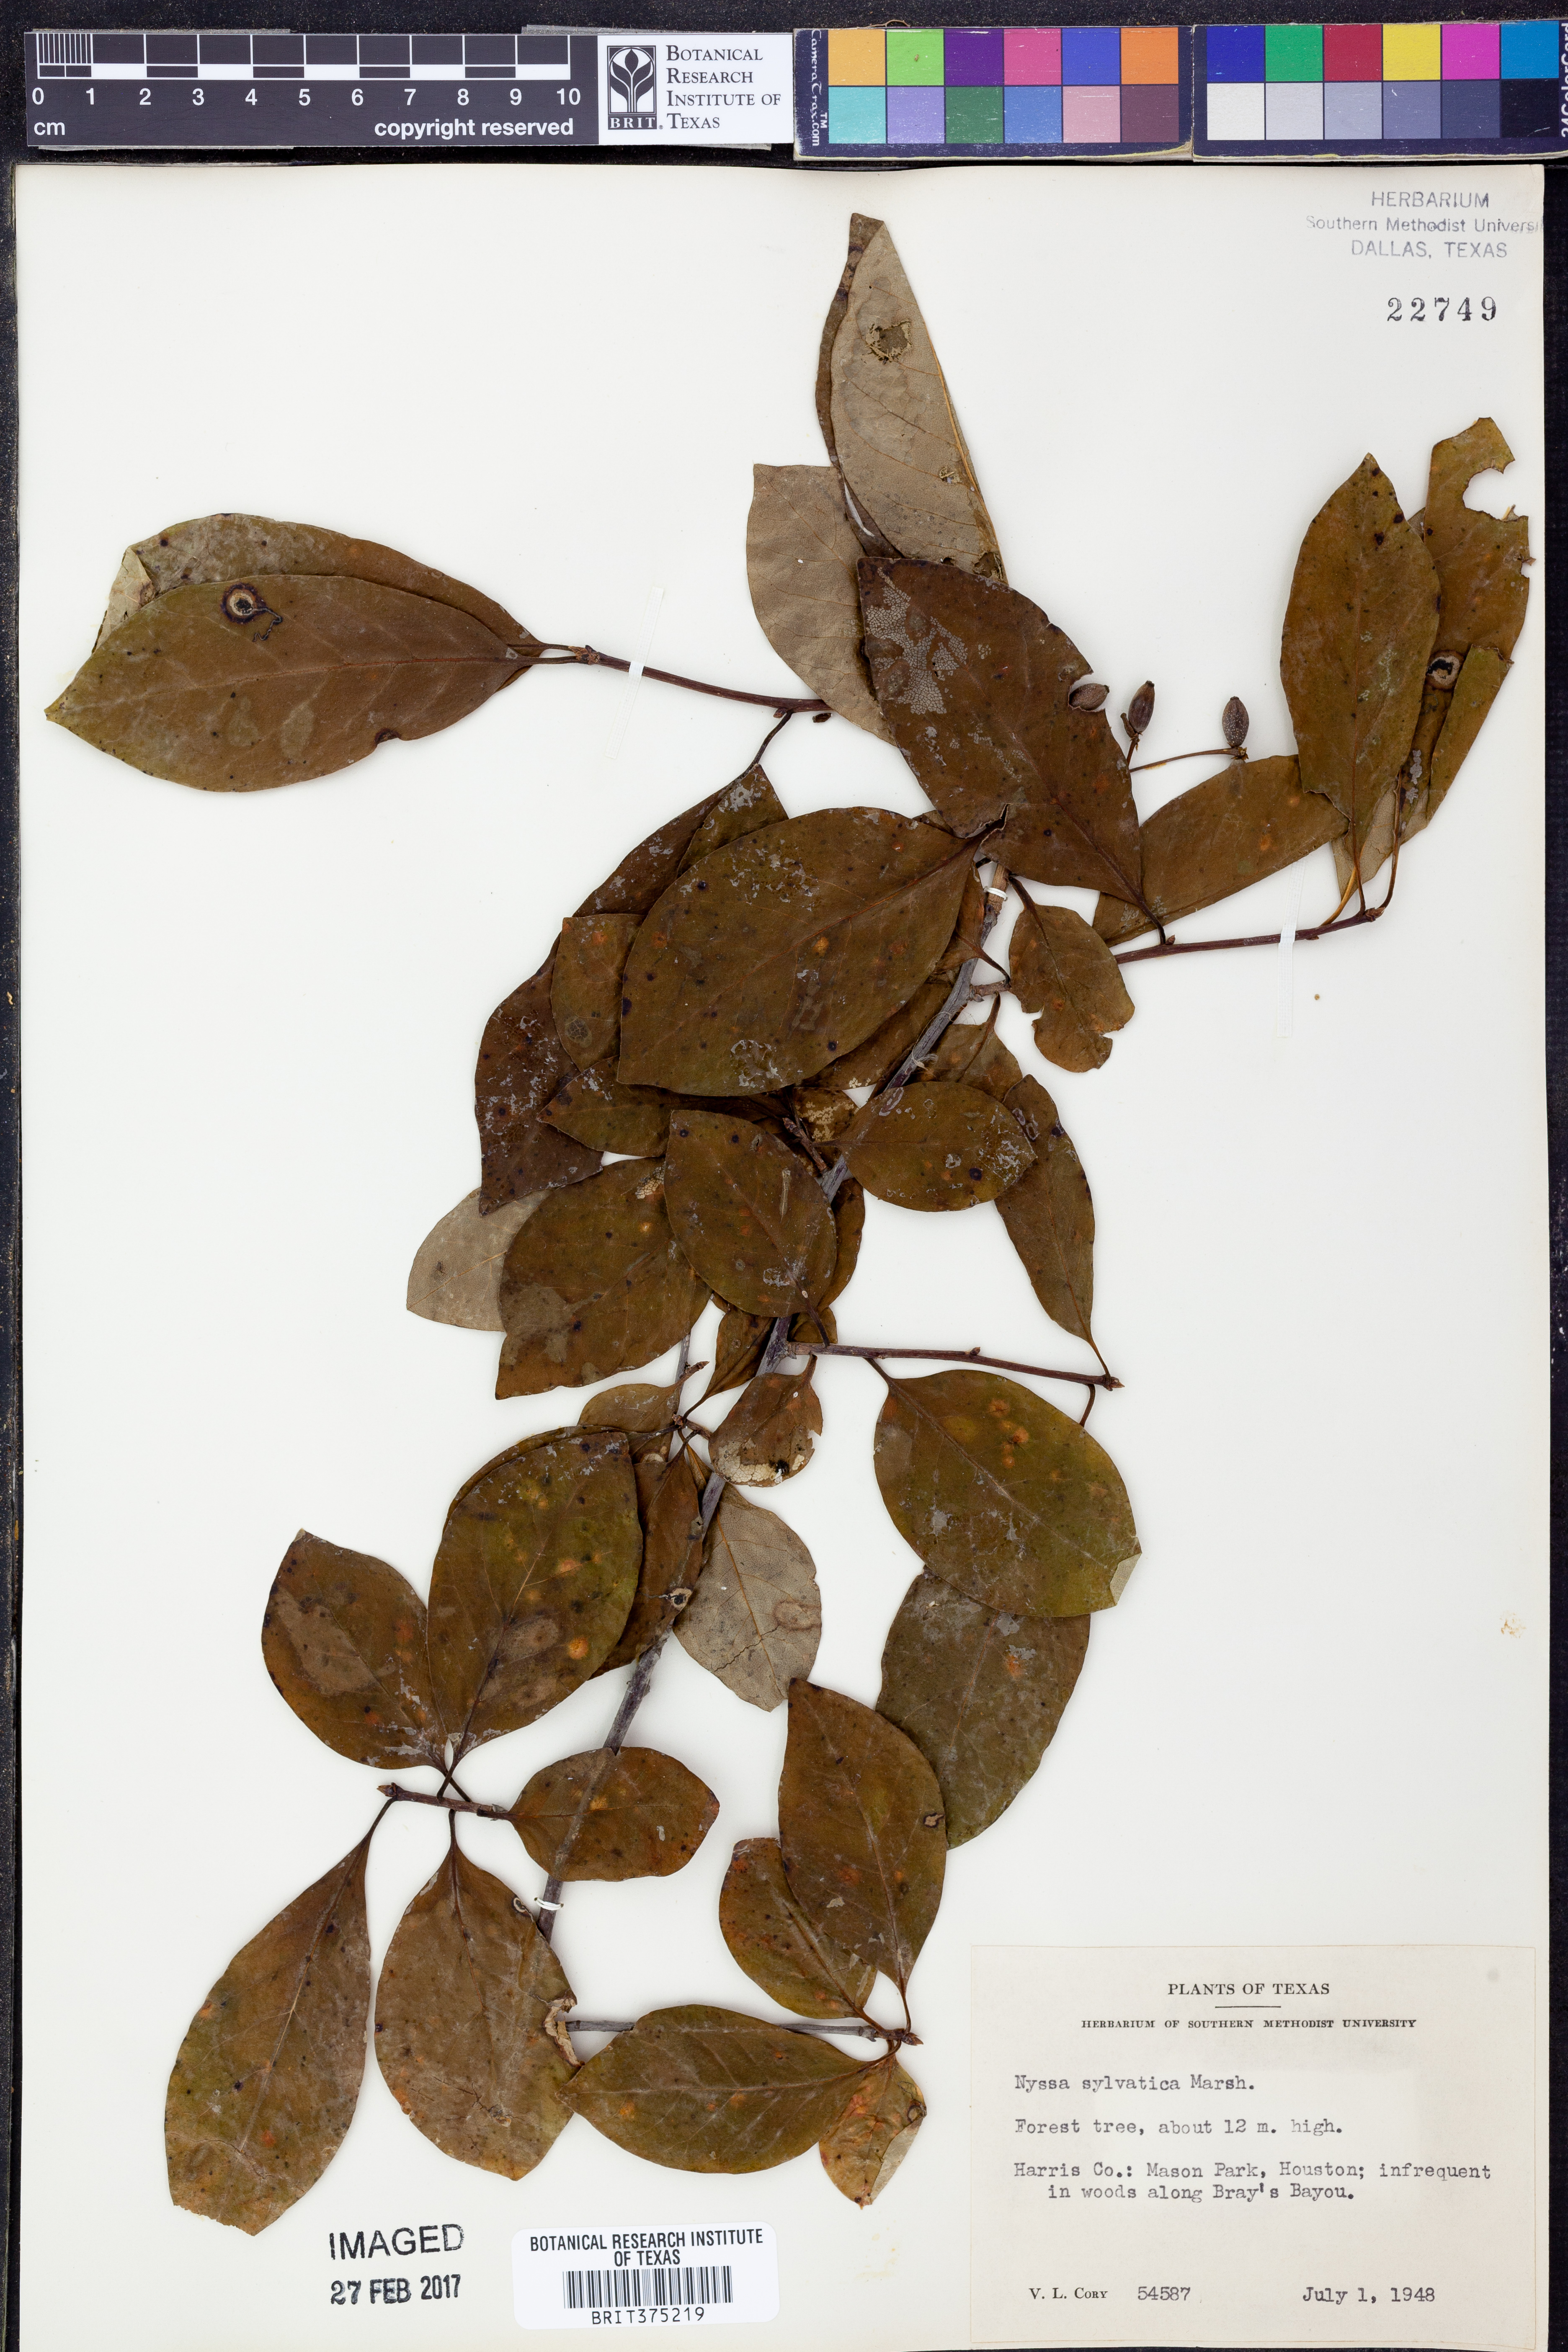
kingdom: Plantae
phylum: Tracheophyta
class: Magnoliopsida
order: Cornales
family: Nyssaceae
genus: Nyssa
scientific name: Nyssa sylvatica
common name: Black tupelo
